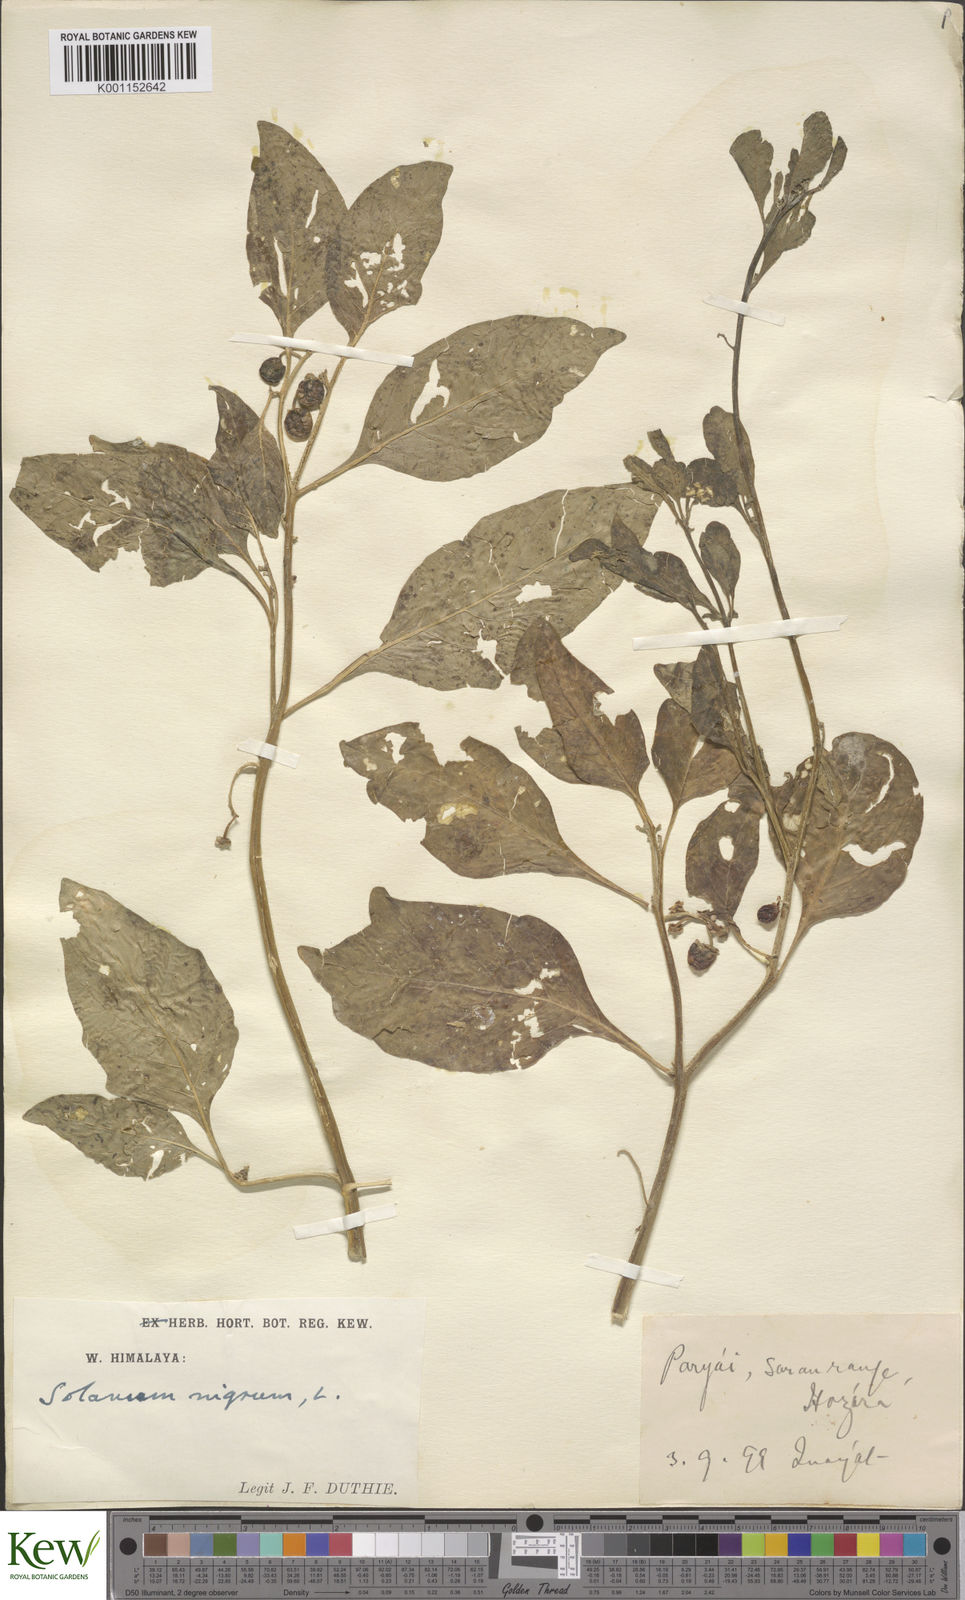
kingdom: Plantae
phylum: Tracheophyta
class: Magnoliopsida
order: Solanales
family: Solanaceae
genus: Solanum
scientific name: Solanum nigrum
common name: Black nightshade
